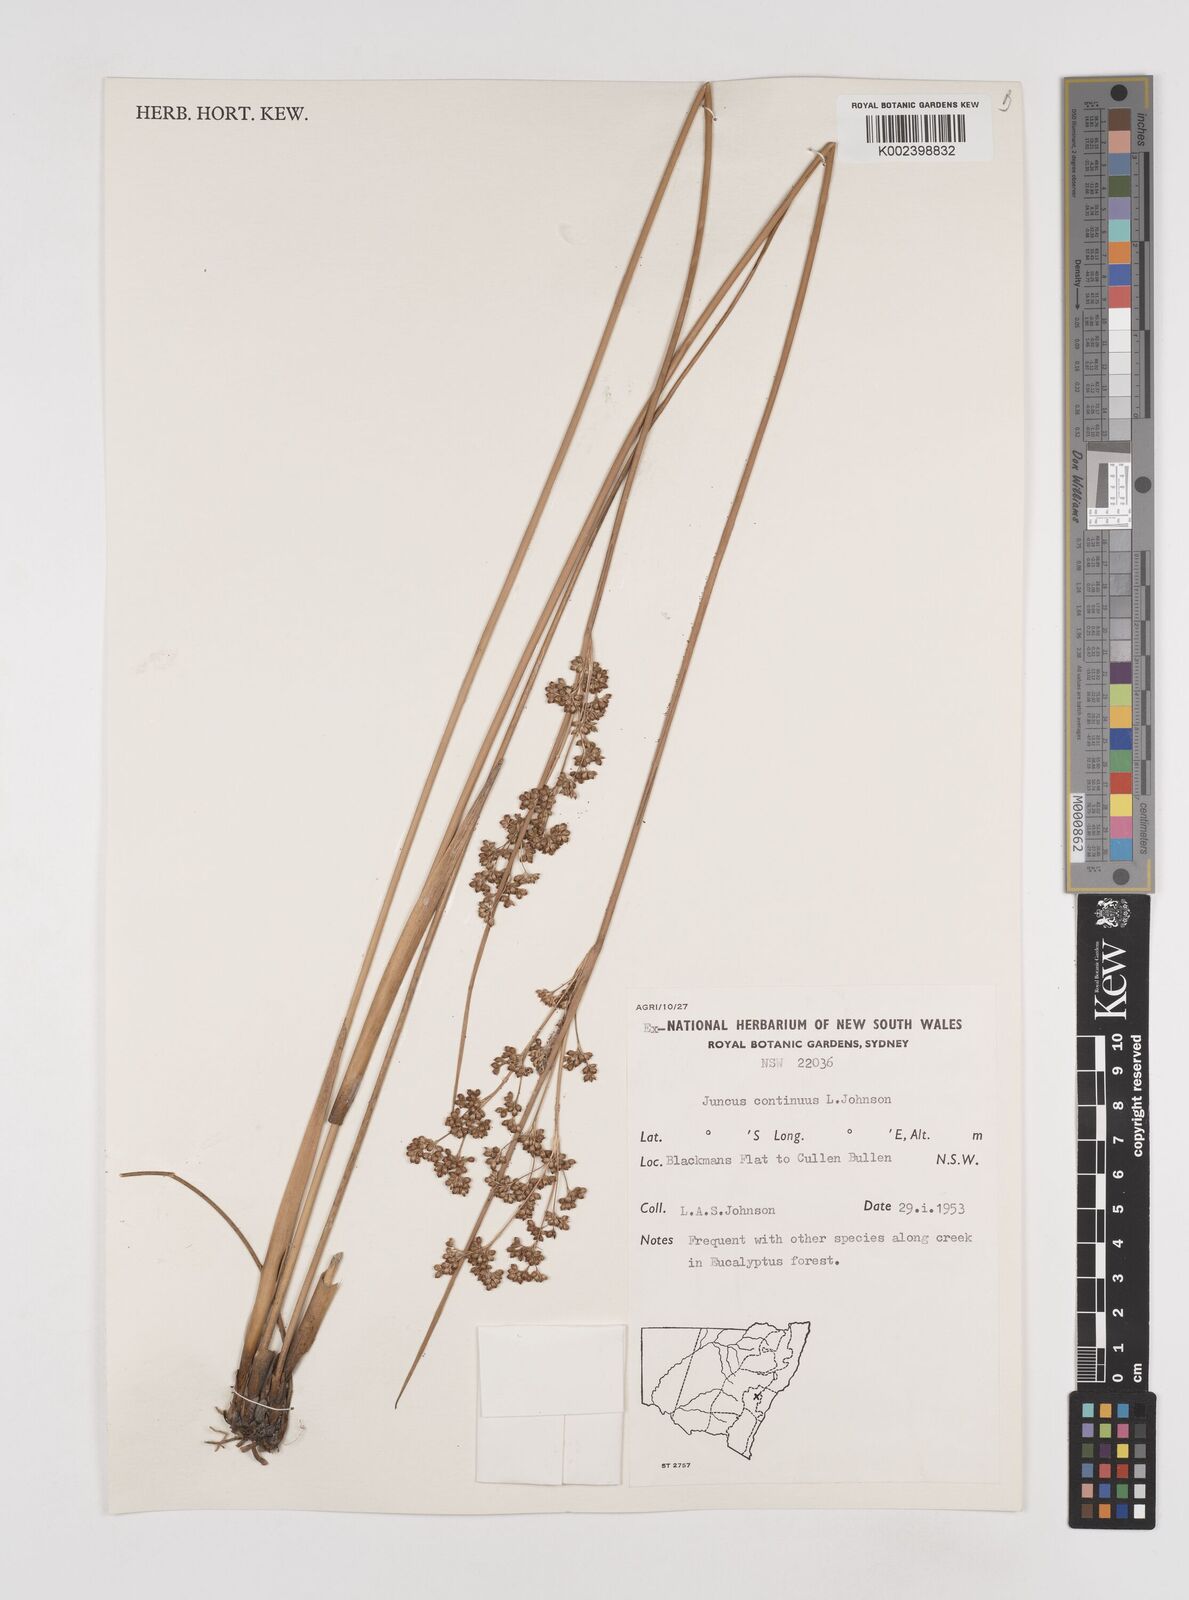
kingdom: Plantae
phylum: Tracheophyta
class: Liliopsida
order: Poales
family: Juncaceae
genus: Juncus
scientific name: Juncus continuus
